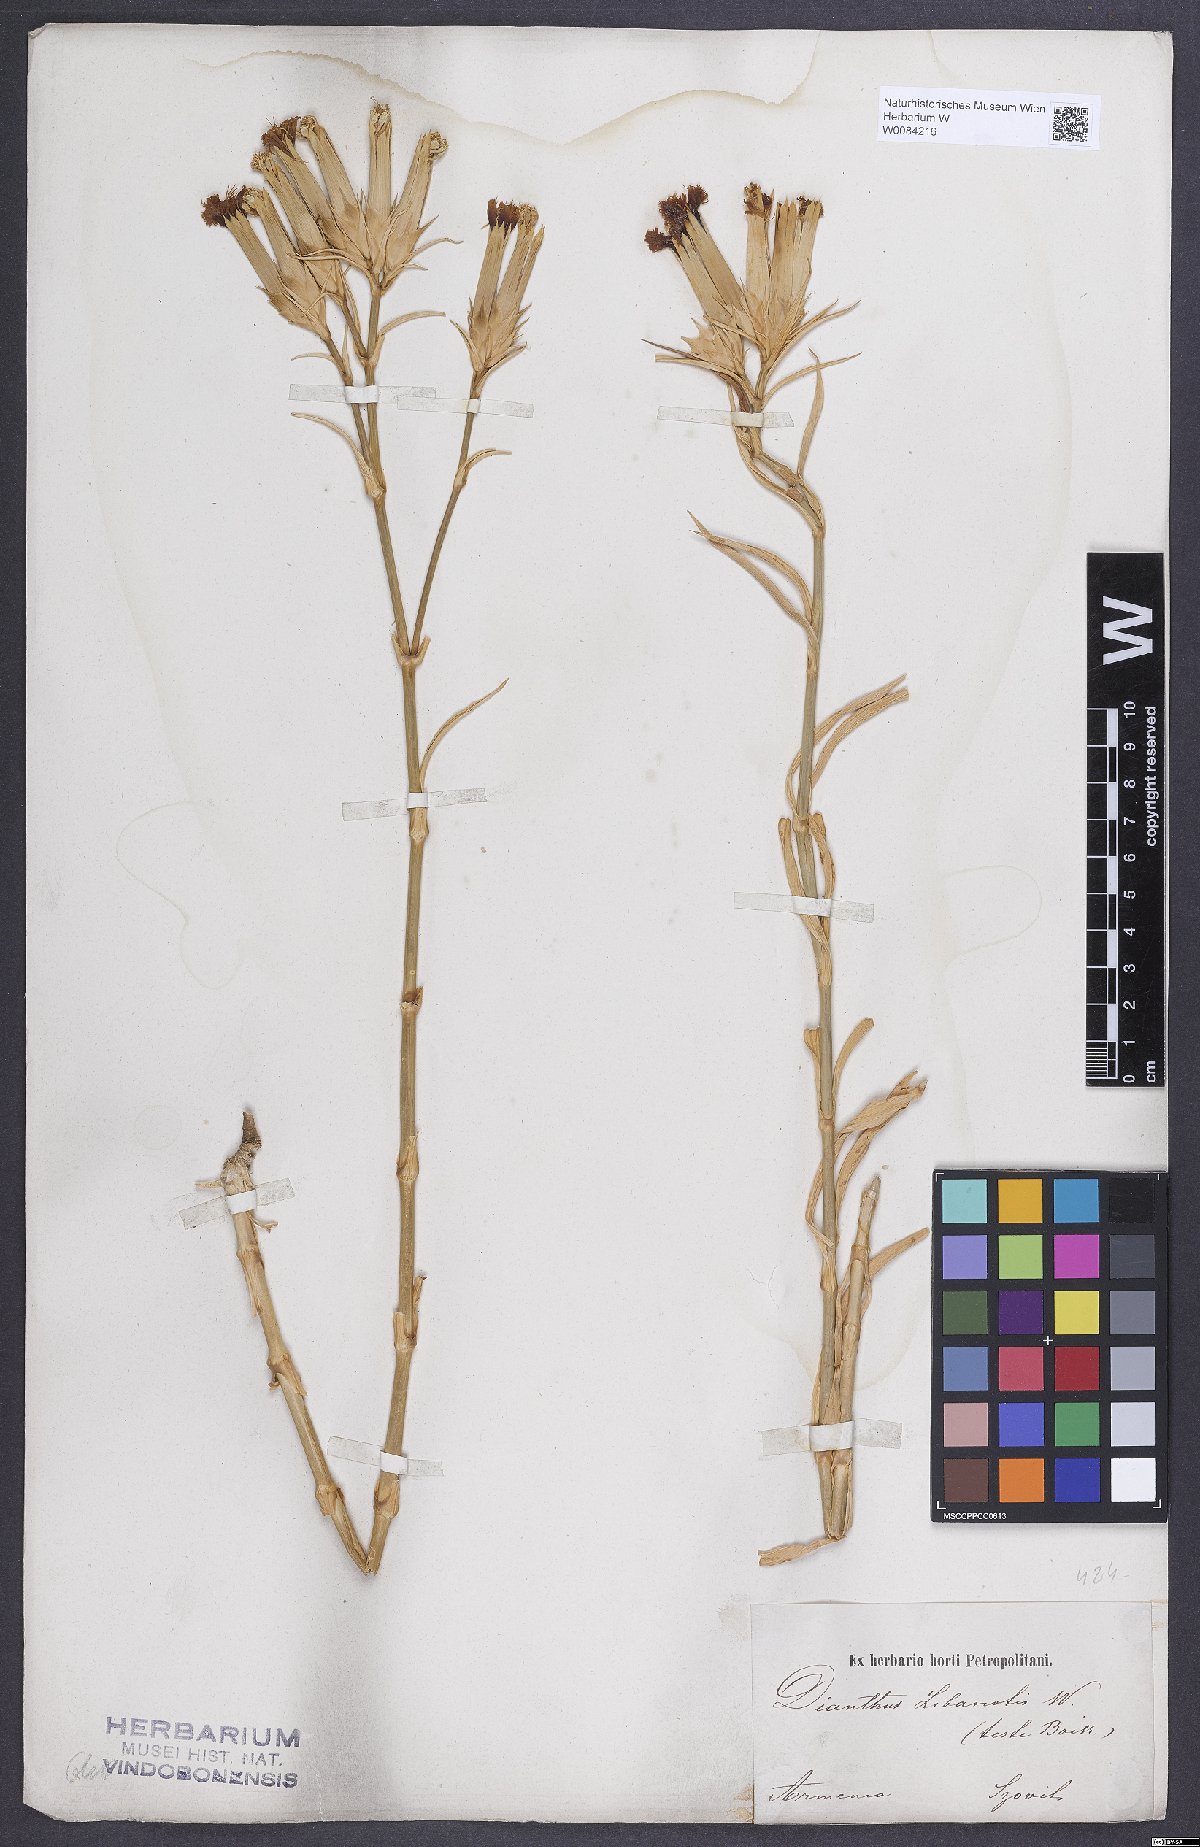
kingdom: Plantae
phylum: Tracheophyta
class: Magnoliopsida
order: Caryophyllales
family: Caryophyllaceae
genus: Dianthus
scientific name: Dianthus libanotis
